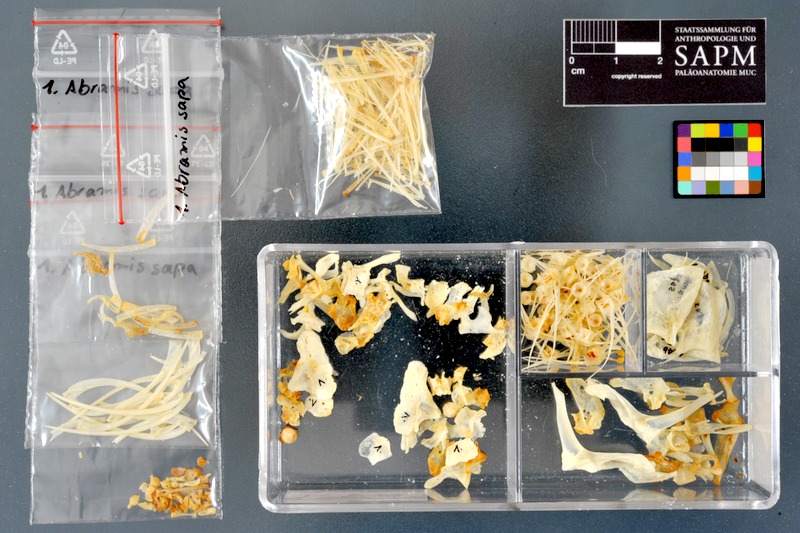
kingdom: Animalia
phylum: Chordata
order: Cypriniformes
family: Cyprinidae
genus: Ballerus
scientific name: Ballerus sapa
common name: White-eye bream
